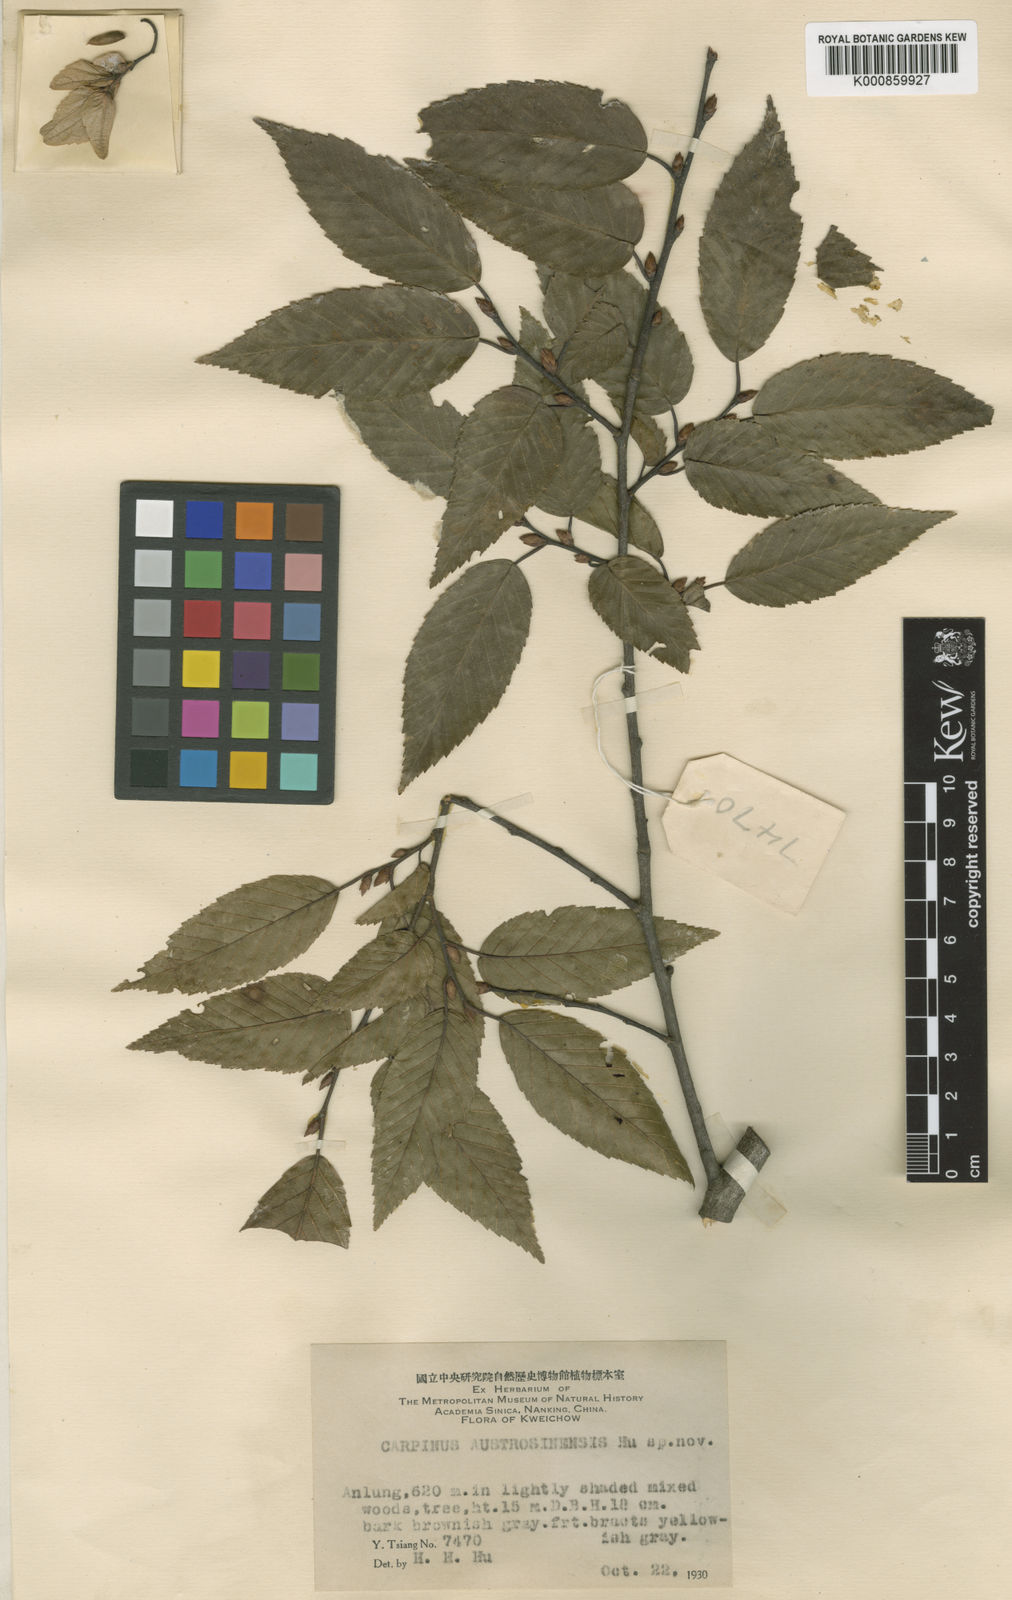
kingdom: Plantae
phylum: Tracheophyta
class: Magnoliopsida
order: Fagales
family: Betulaceae
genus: Carpinus
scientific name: Carpinus pubescens
